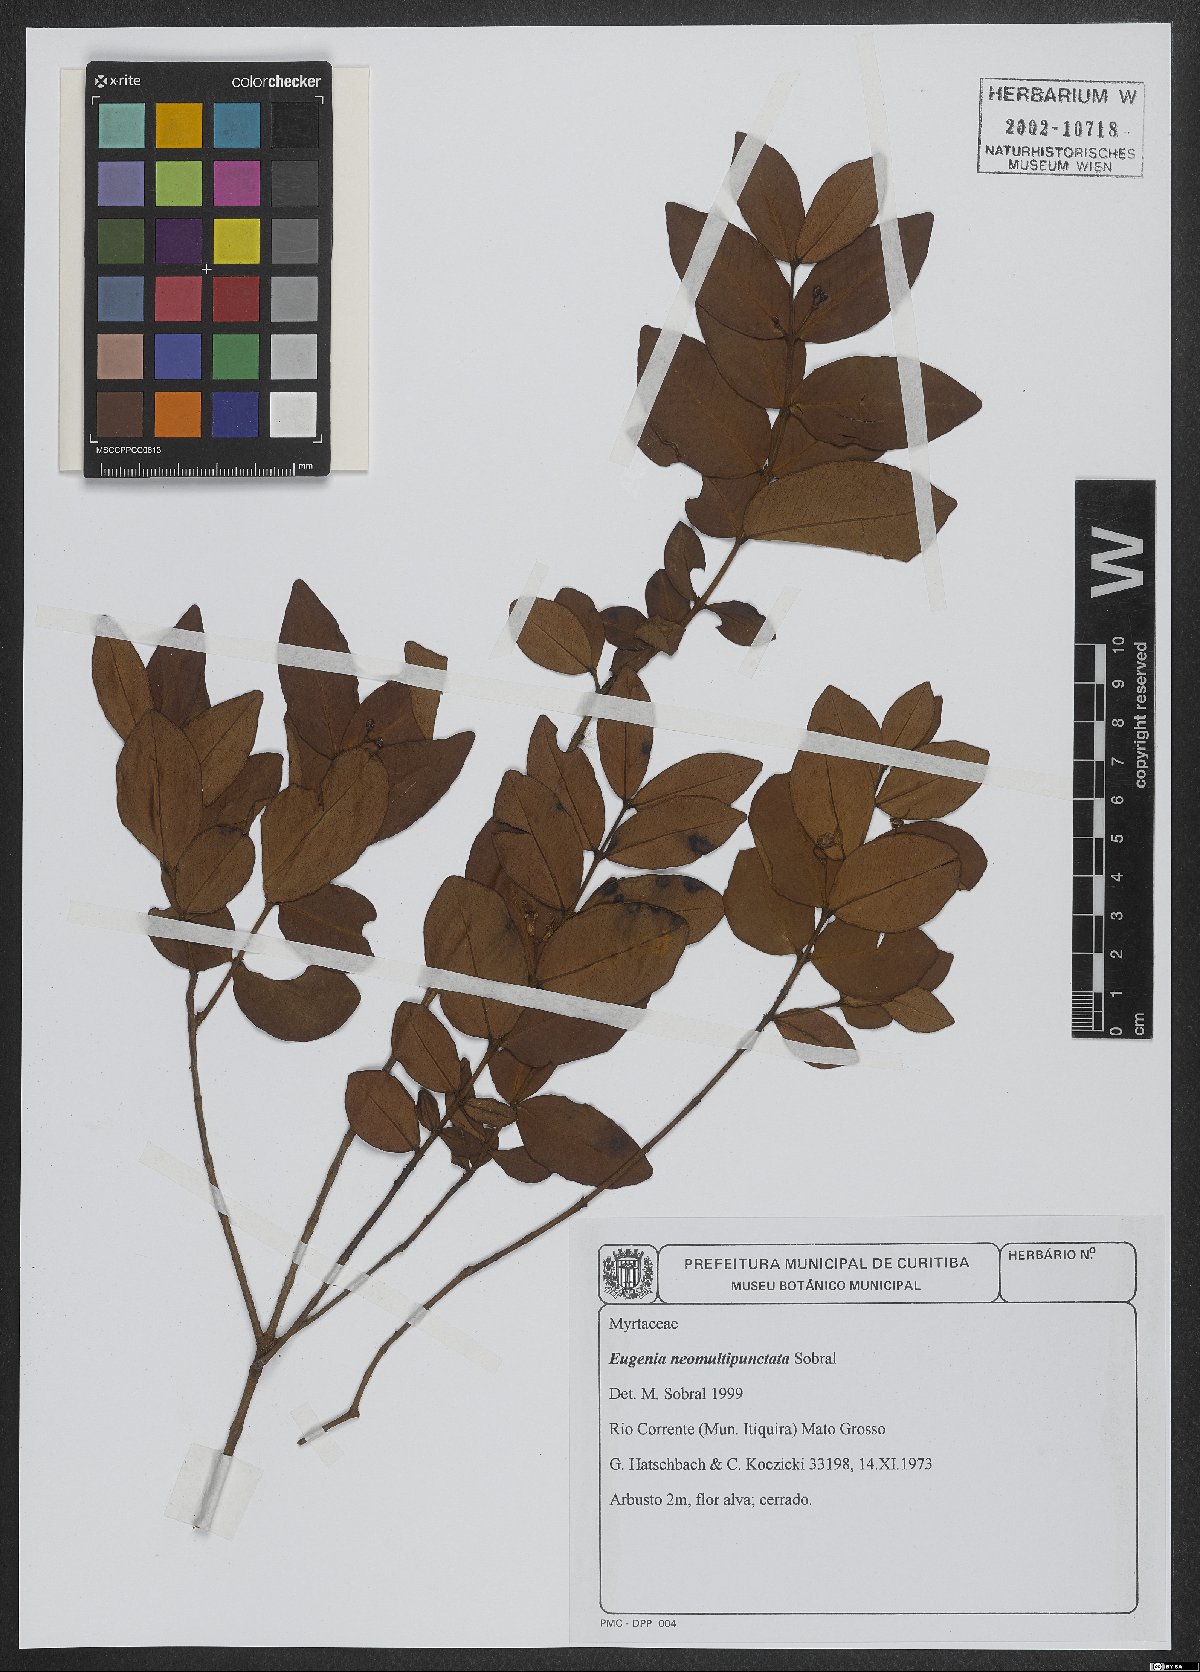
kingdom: Plantae
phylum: Tracheophyta
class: Magnoliopsida
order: Myrtales
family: Myrtaceae
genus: Eugenia
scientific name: Eugenia neomultipunctata
